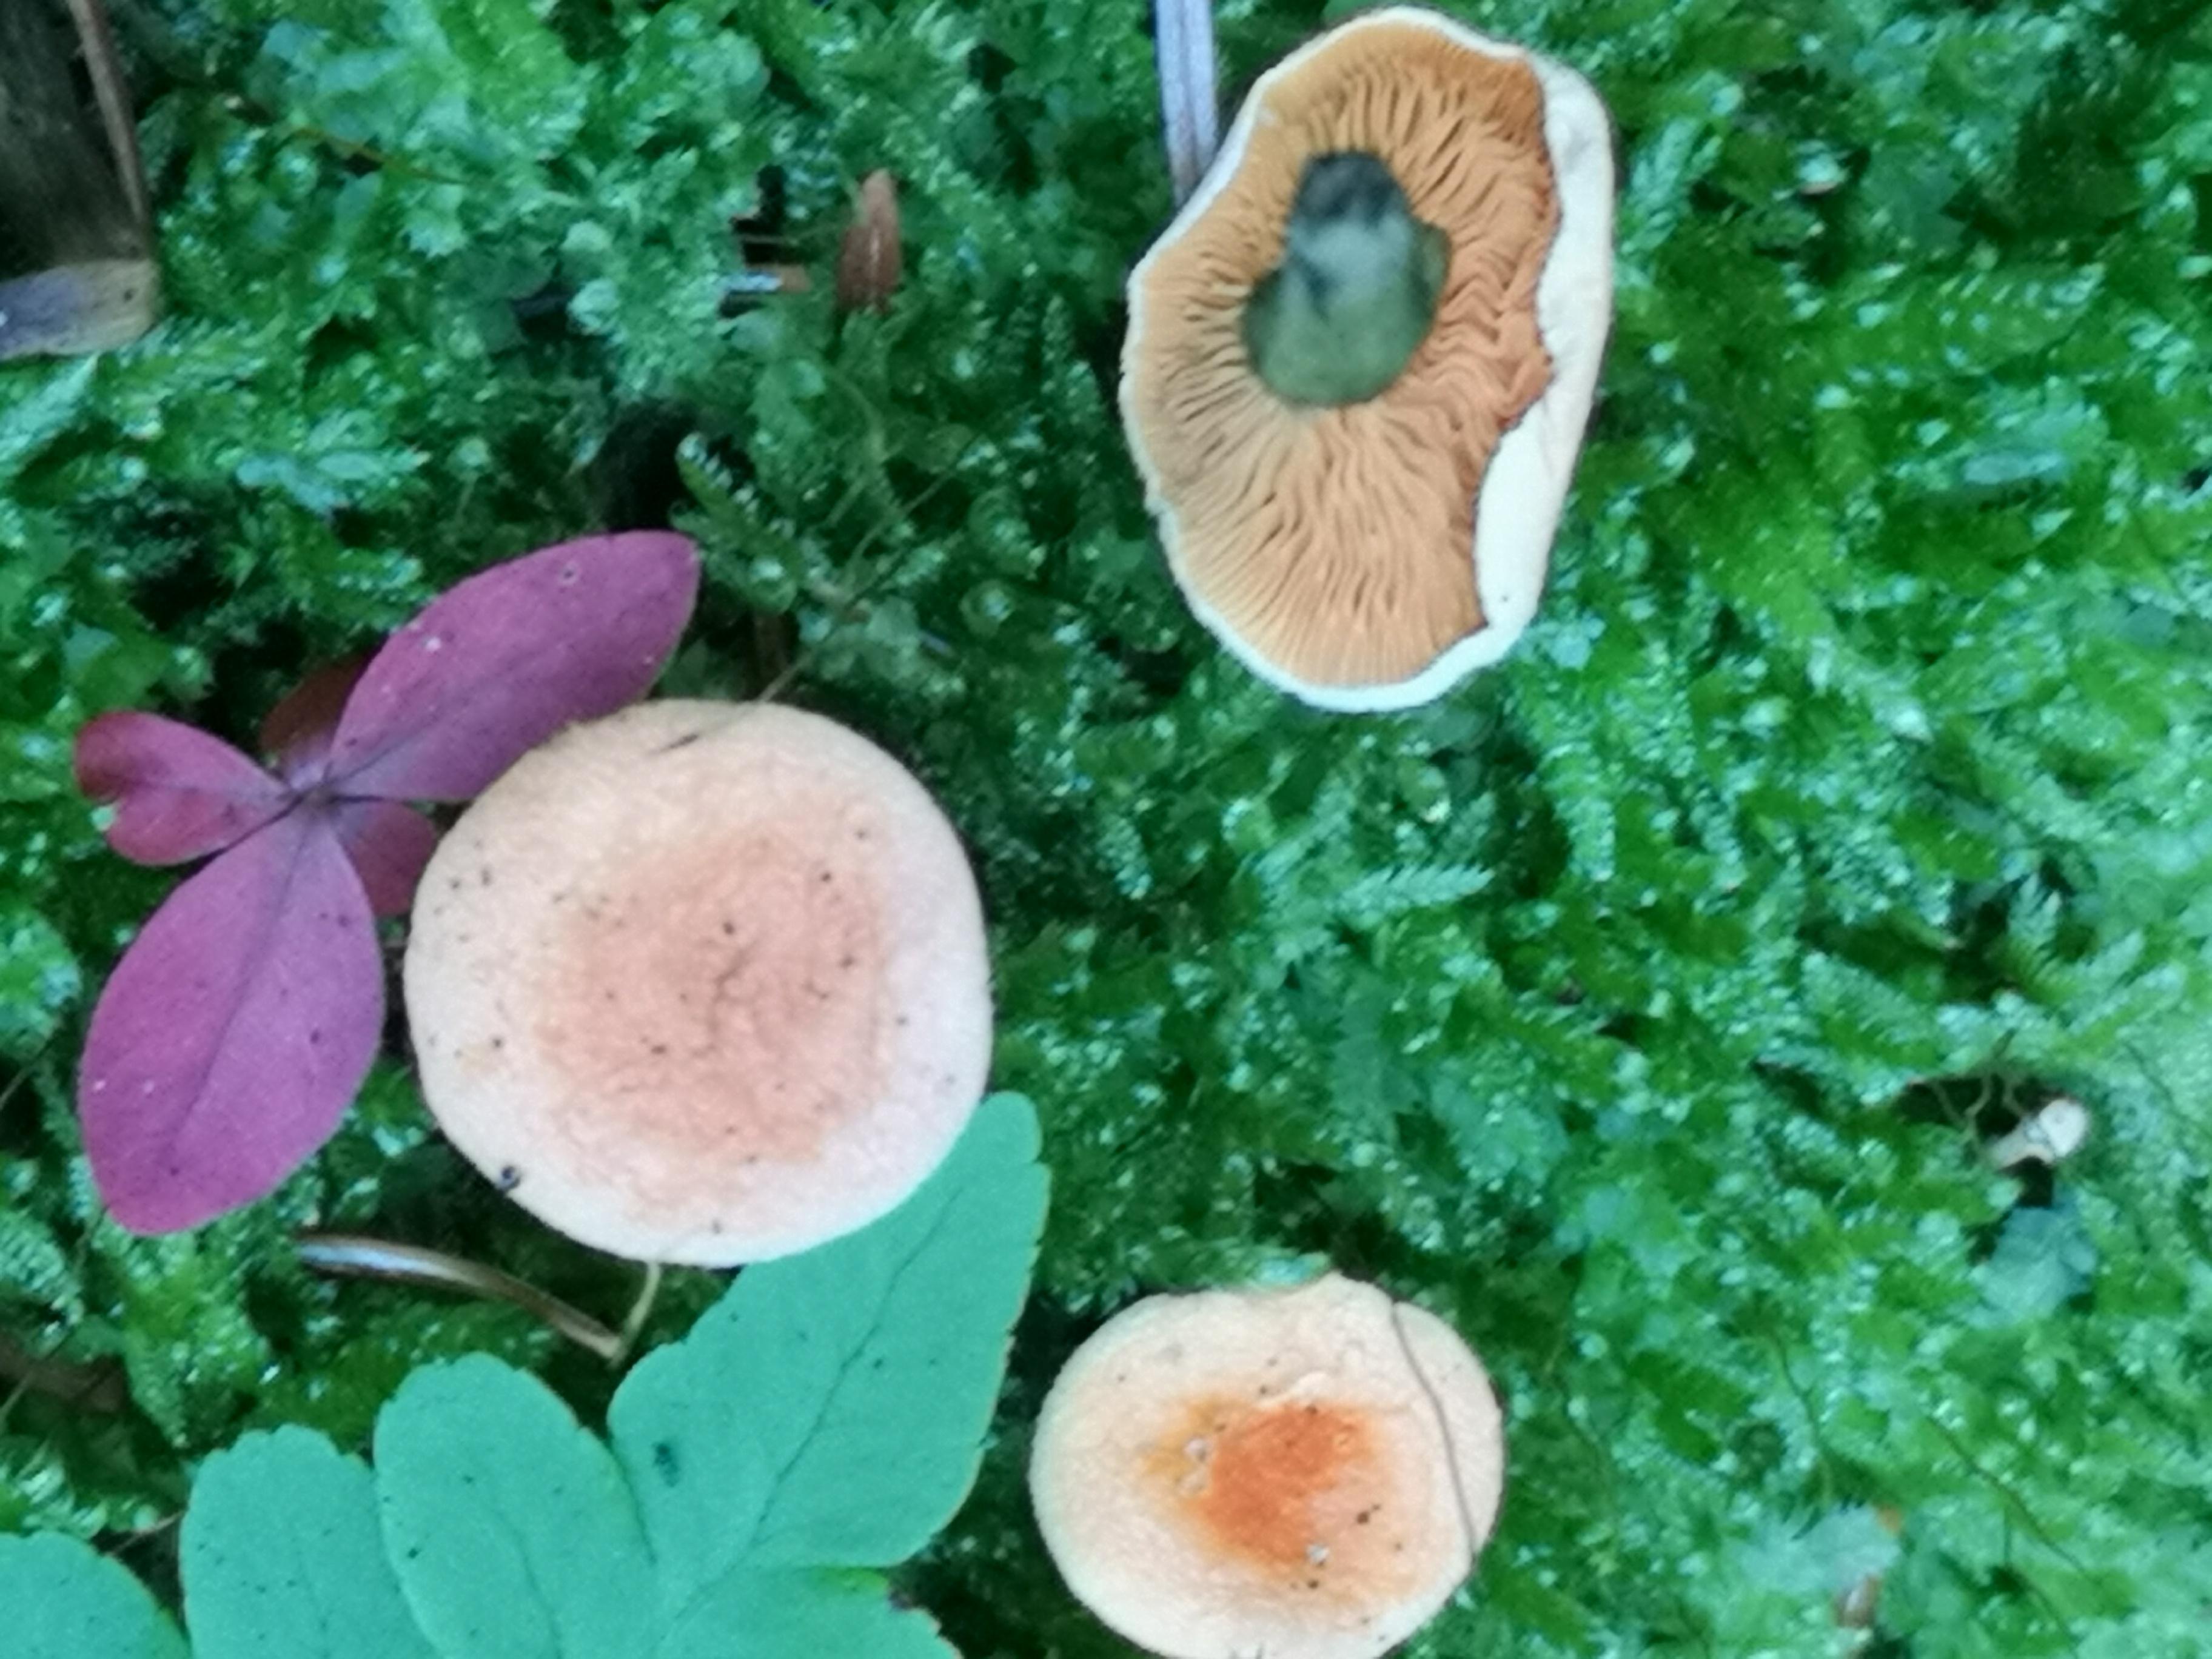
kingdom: Fungi
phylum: Basidiomycota
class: Agaricomycetes
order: Boletales
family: Hygrophoropsidaceae
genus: Hygrophoropsis
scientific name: Hygrophoropsis aurantiaca
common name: almindelig orangekantarel
